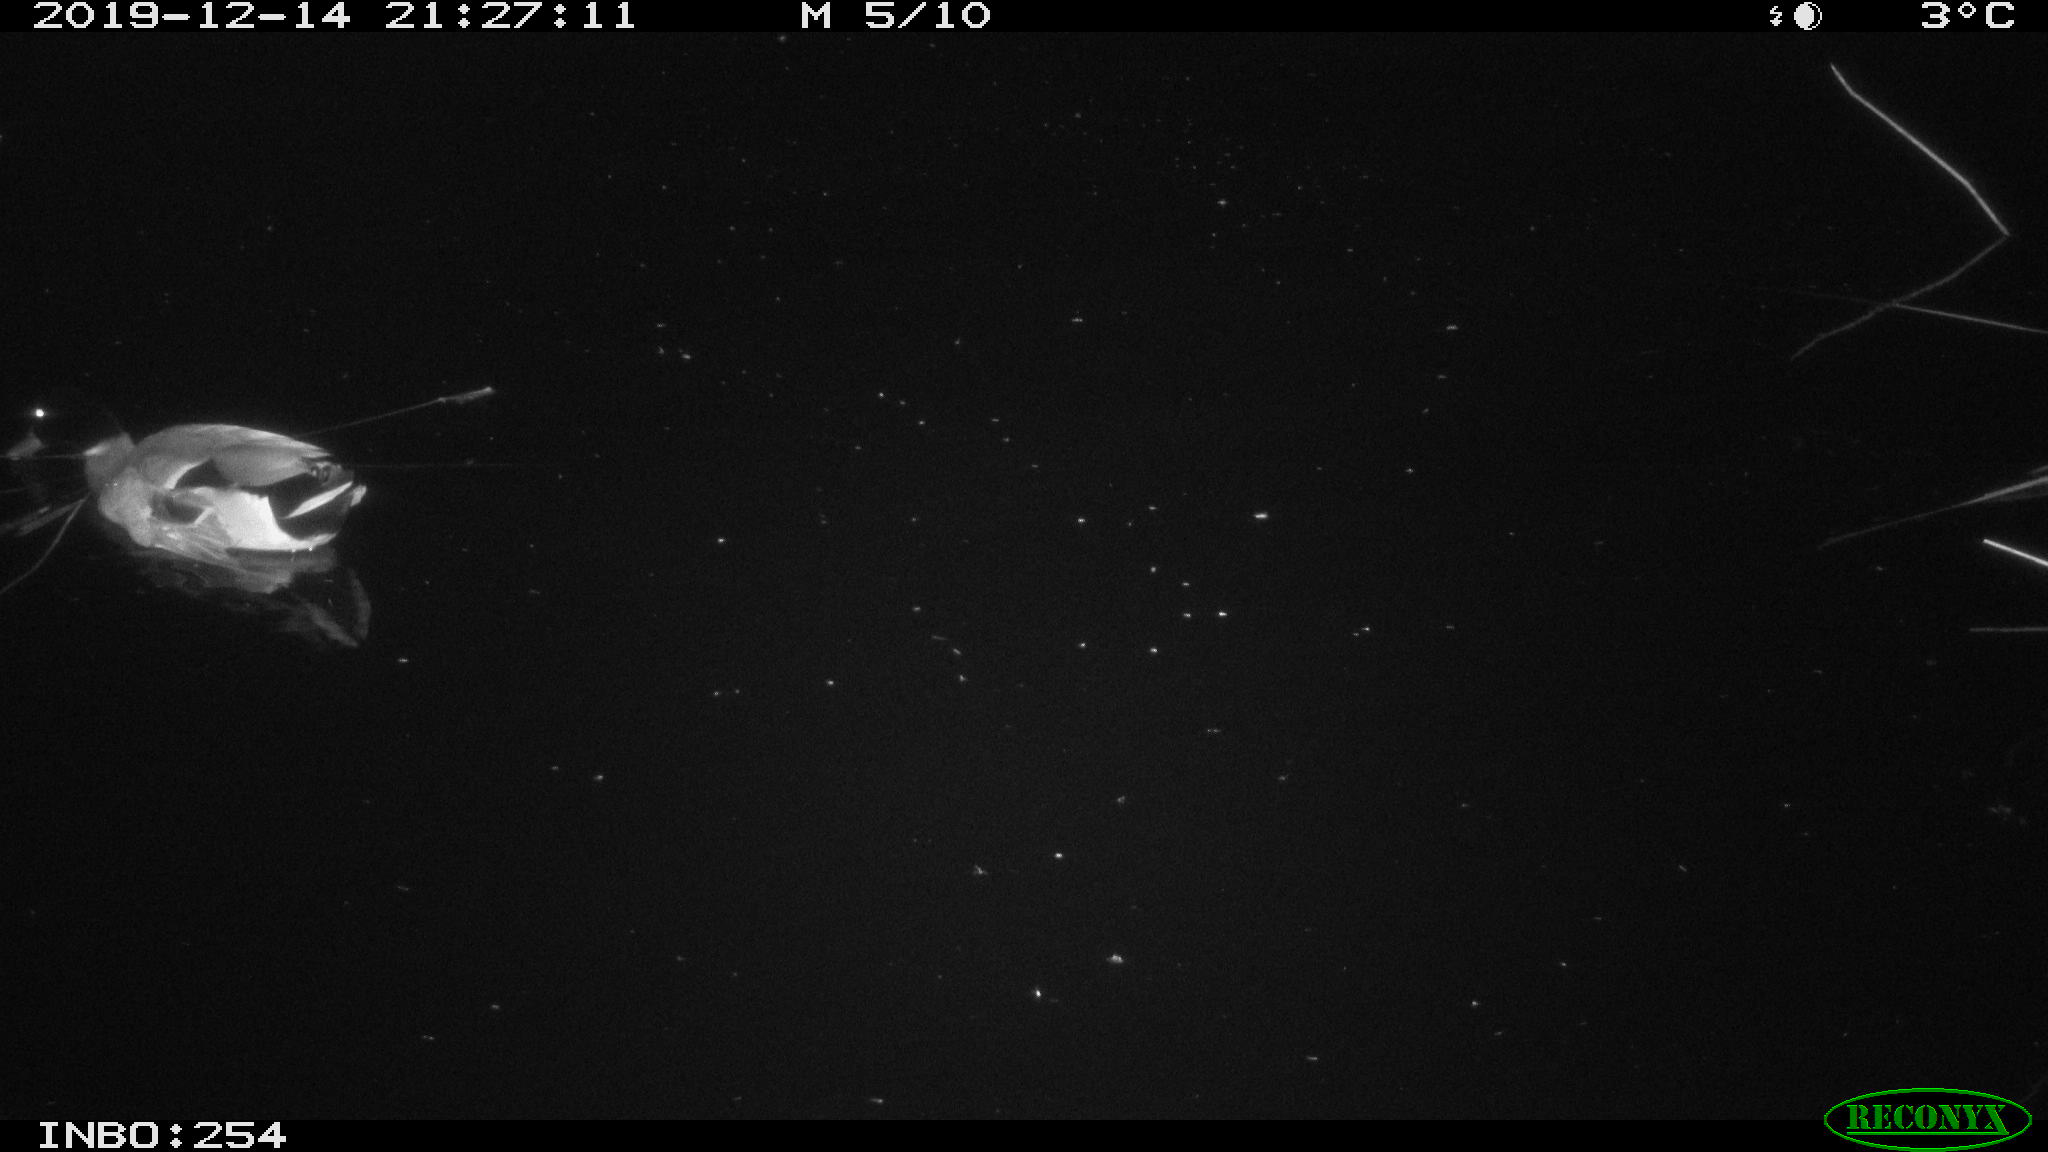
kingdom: Animalia
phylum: Chordata
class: Aves
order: Anseriformes
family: Anatidae
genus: Anas
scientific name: Anas platyrhynchos
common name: Mallard
